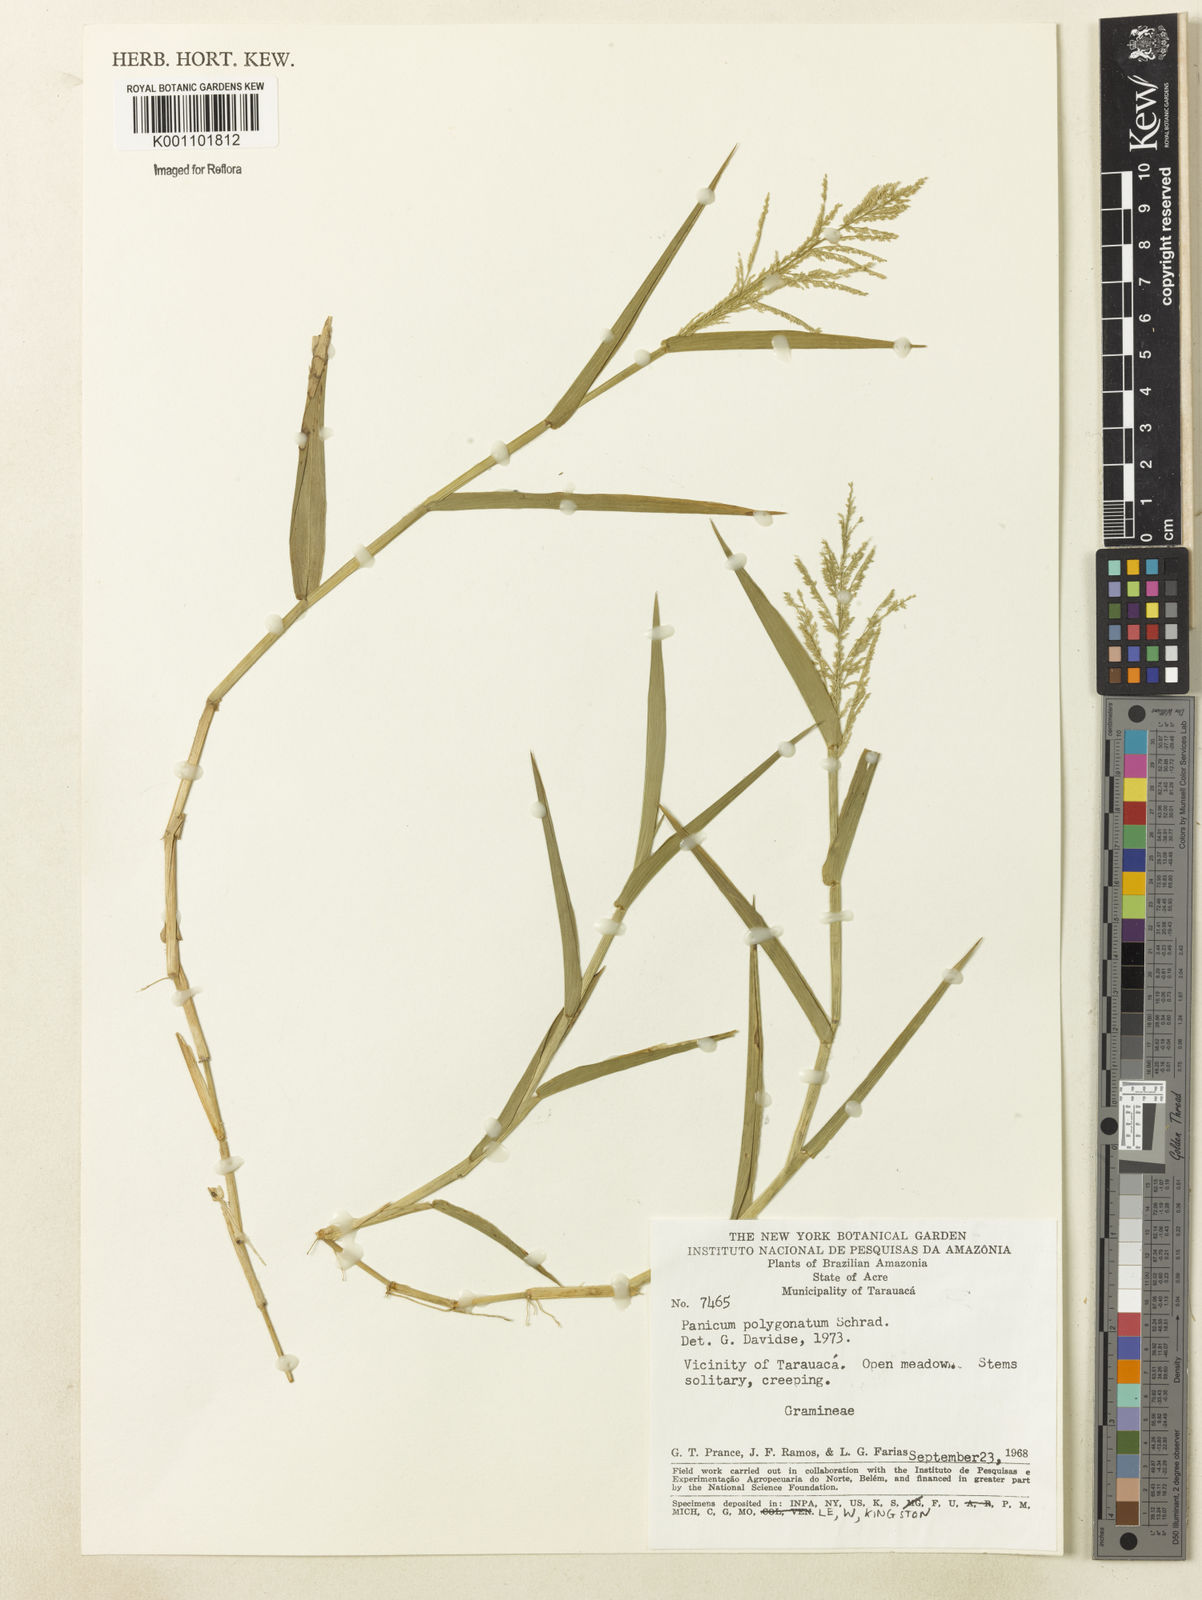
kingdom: Plantae
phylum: Tracheophyta
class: Liliopsida
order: Poales
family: Poaceae
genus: Rugoloa
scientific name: Rugoloa polygonata
